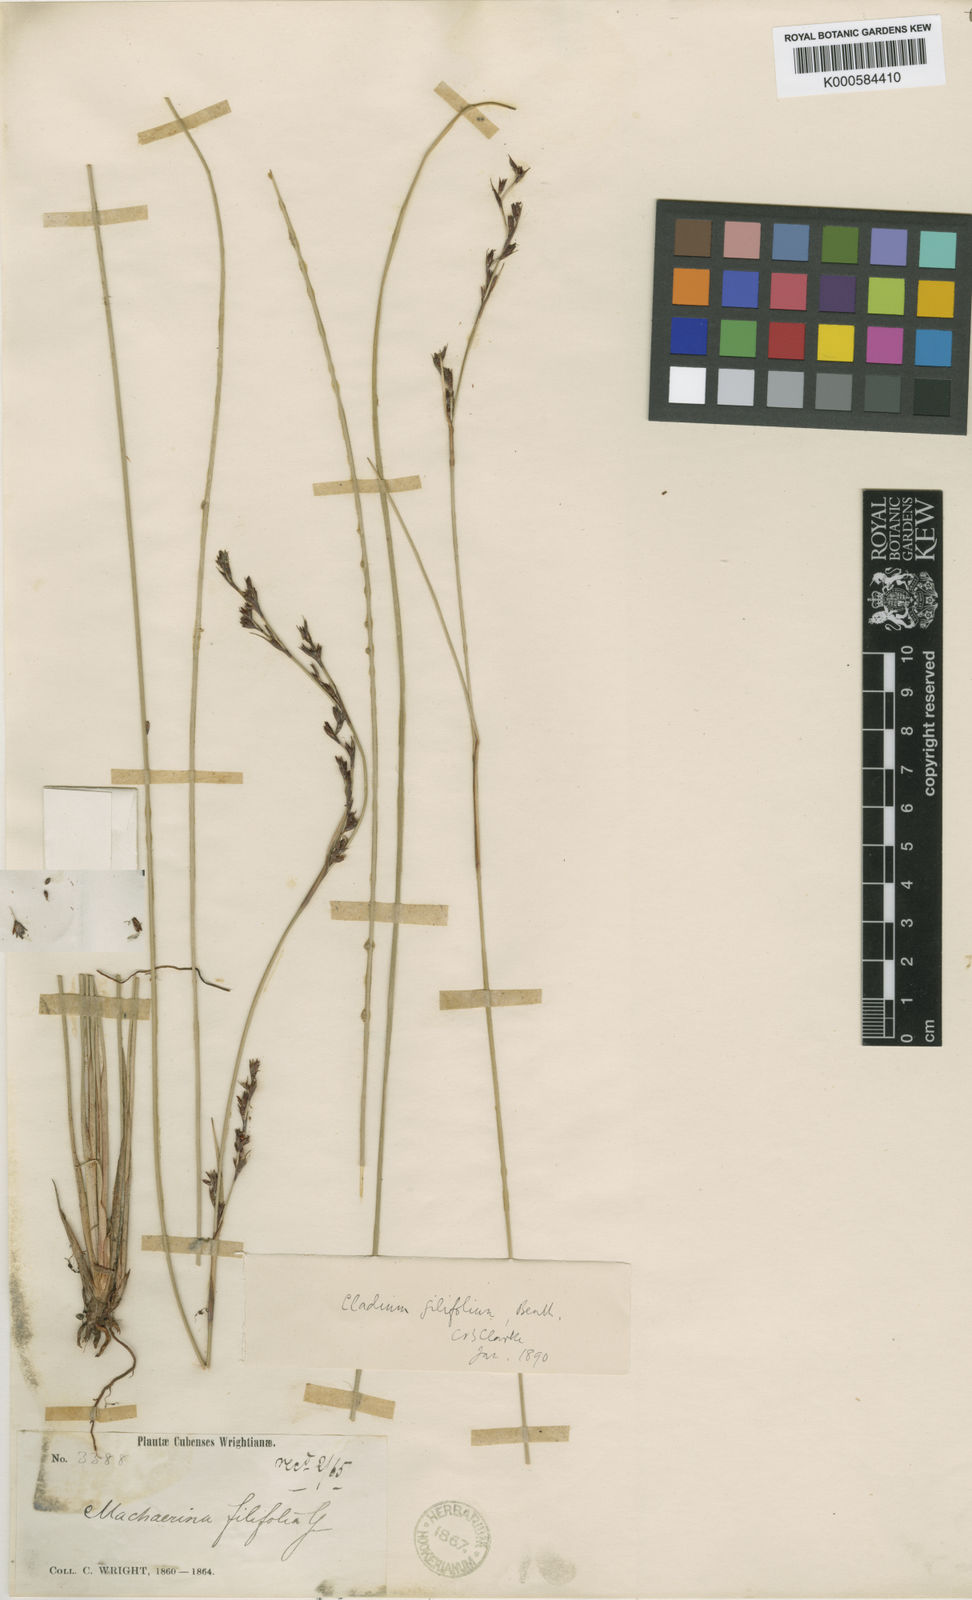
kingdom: Plantae
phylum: Tracheophyta
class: Liliopsida
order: Poales
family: Cyperaceae
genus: Machaerina
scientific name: Machaerina filifolia
